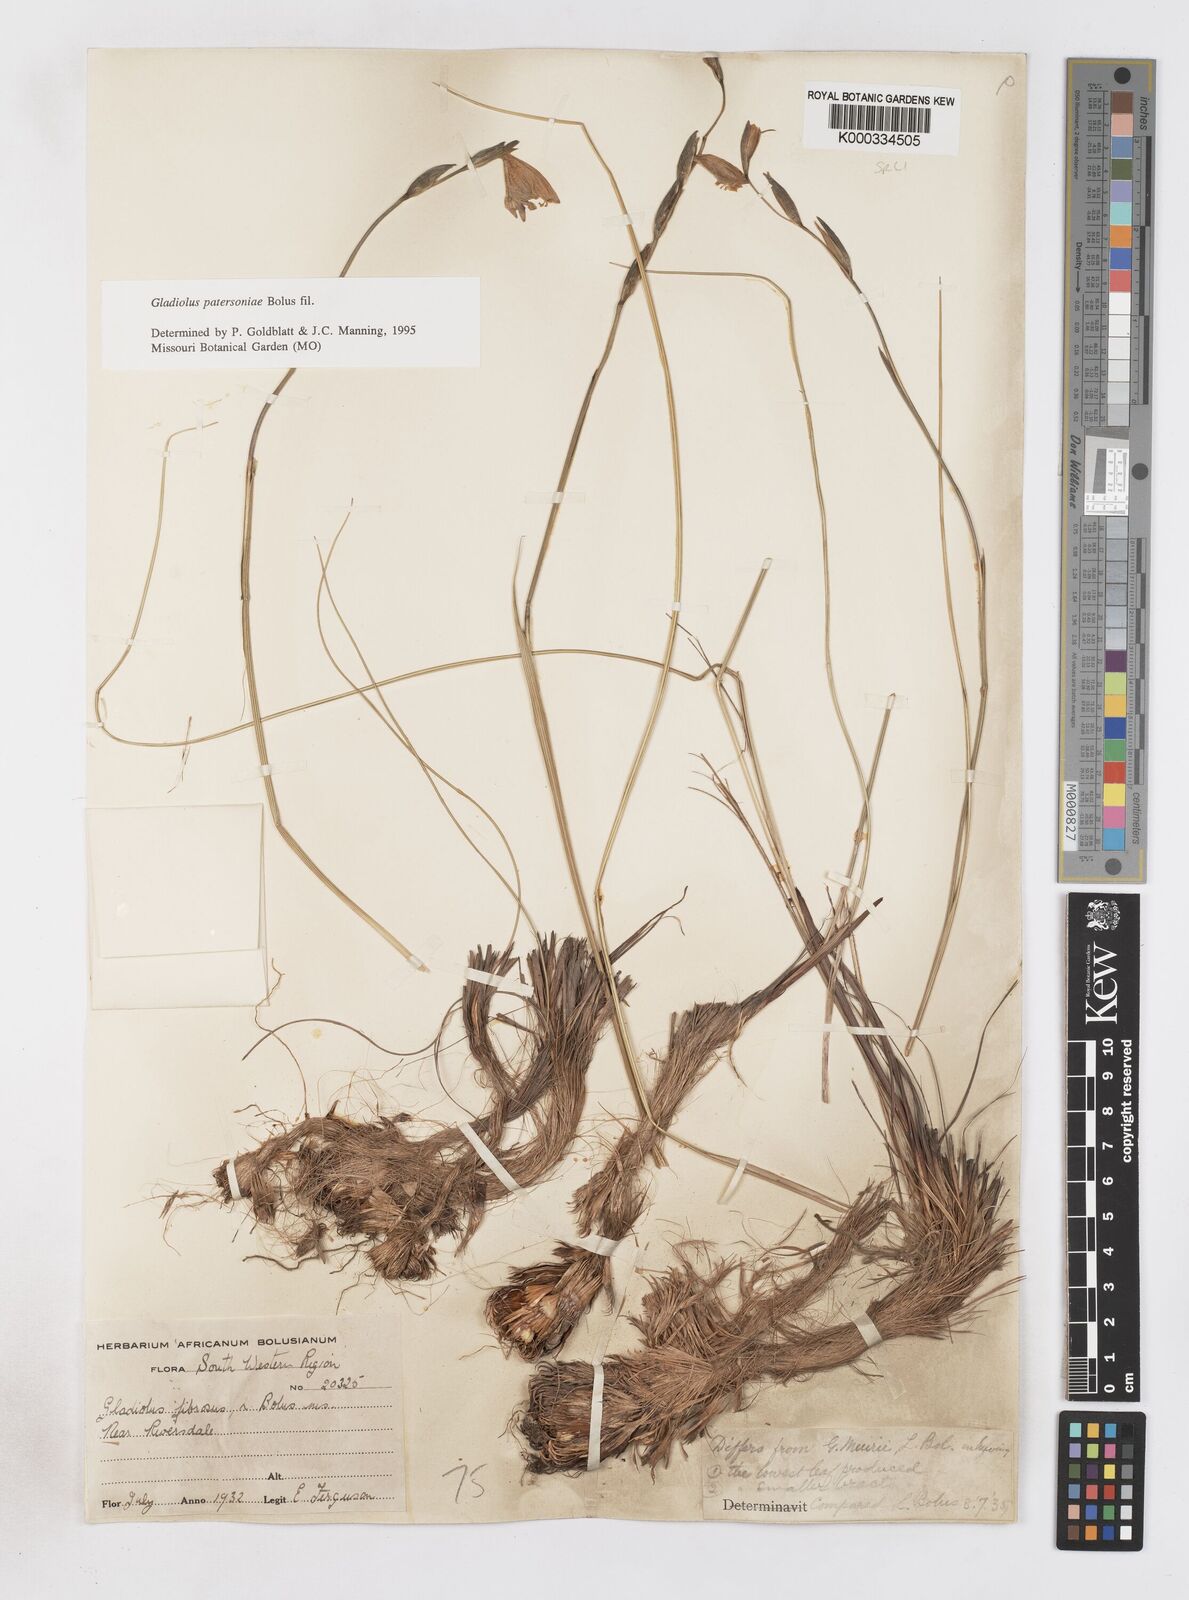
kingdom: Plantae
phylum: Tracheophyta
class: Liliopsida
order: Asparagales
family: Iridaceae
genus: Gladiolus
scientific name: Gladiolus patersoniae
